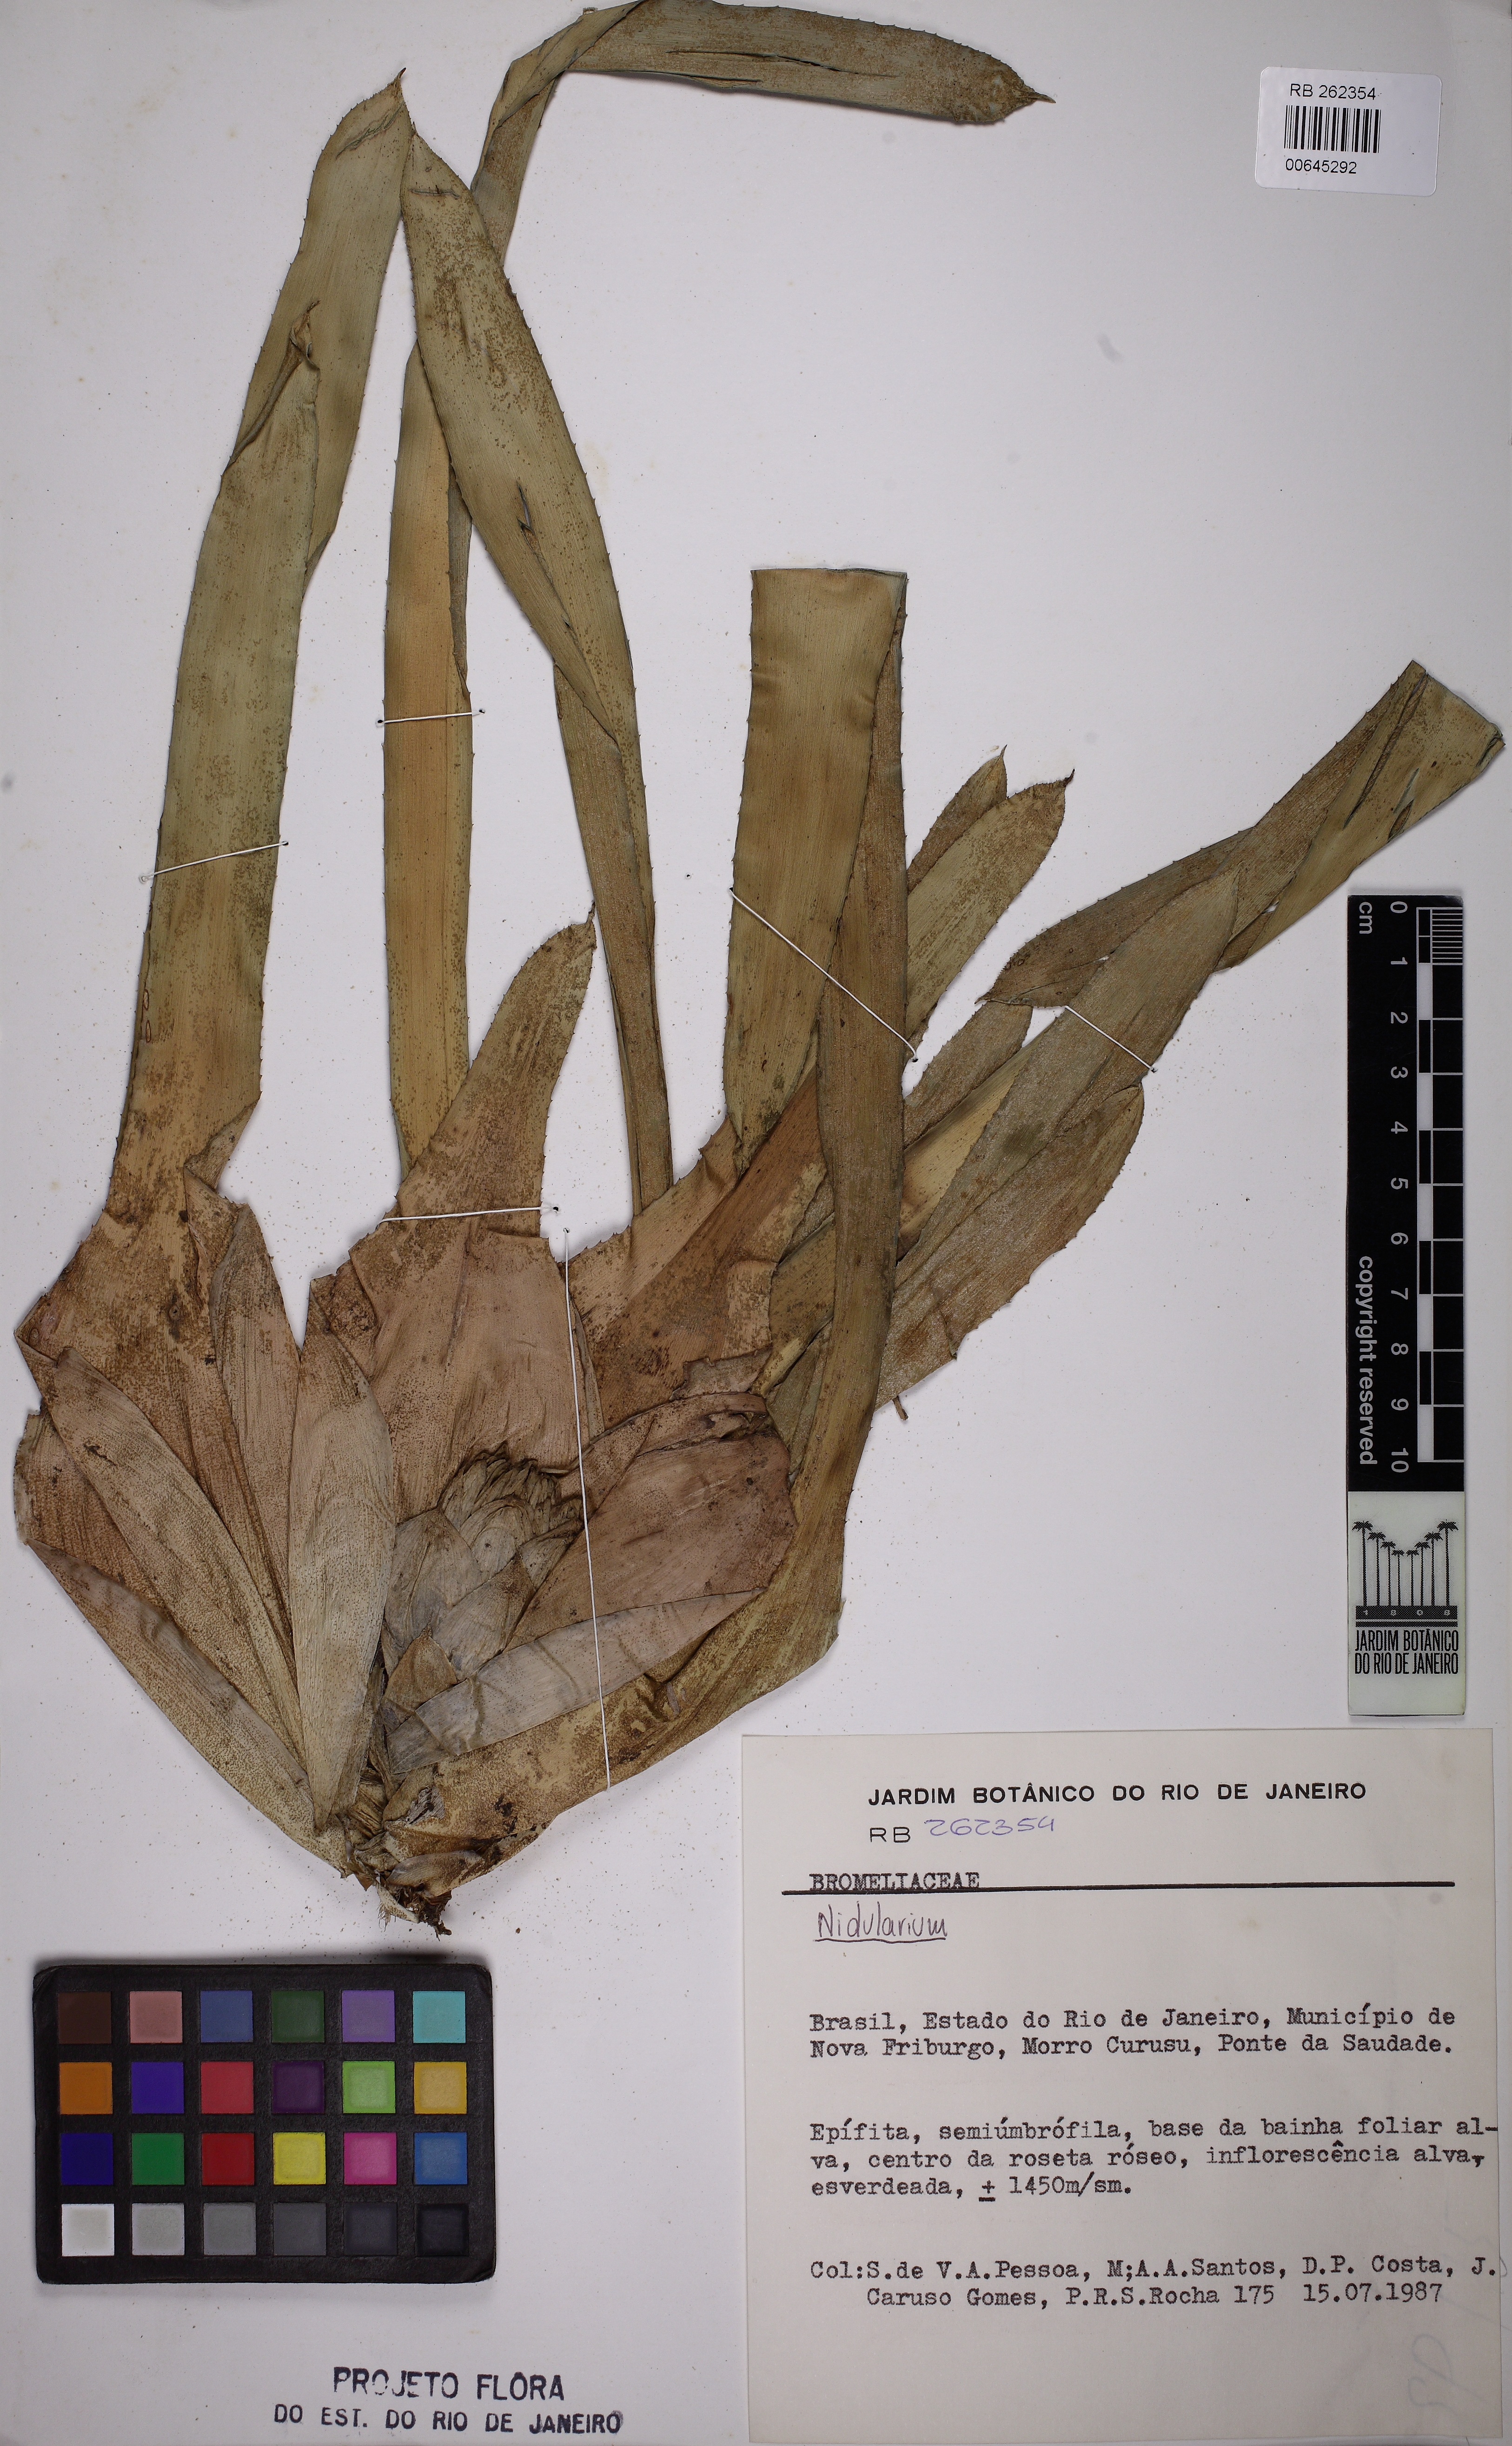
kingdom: Plantae
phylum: Tracheophyta
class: Liliopsida
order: Poales
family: Bromeliaceae
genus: Nidularium
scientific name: Nidularium
